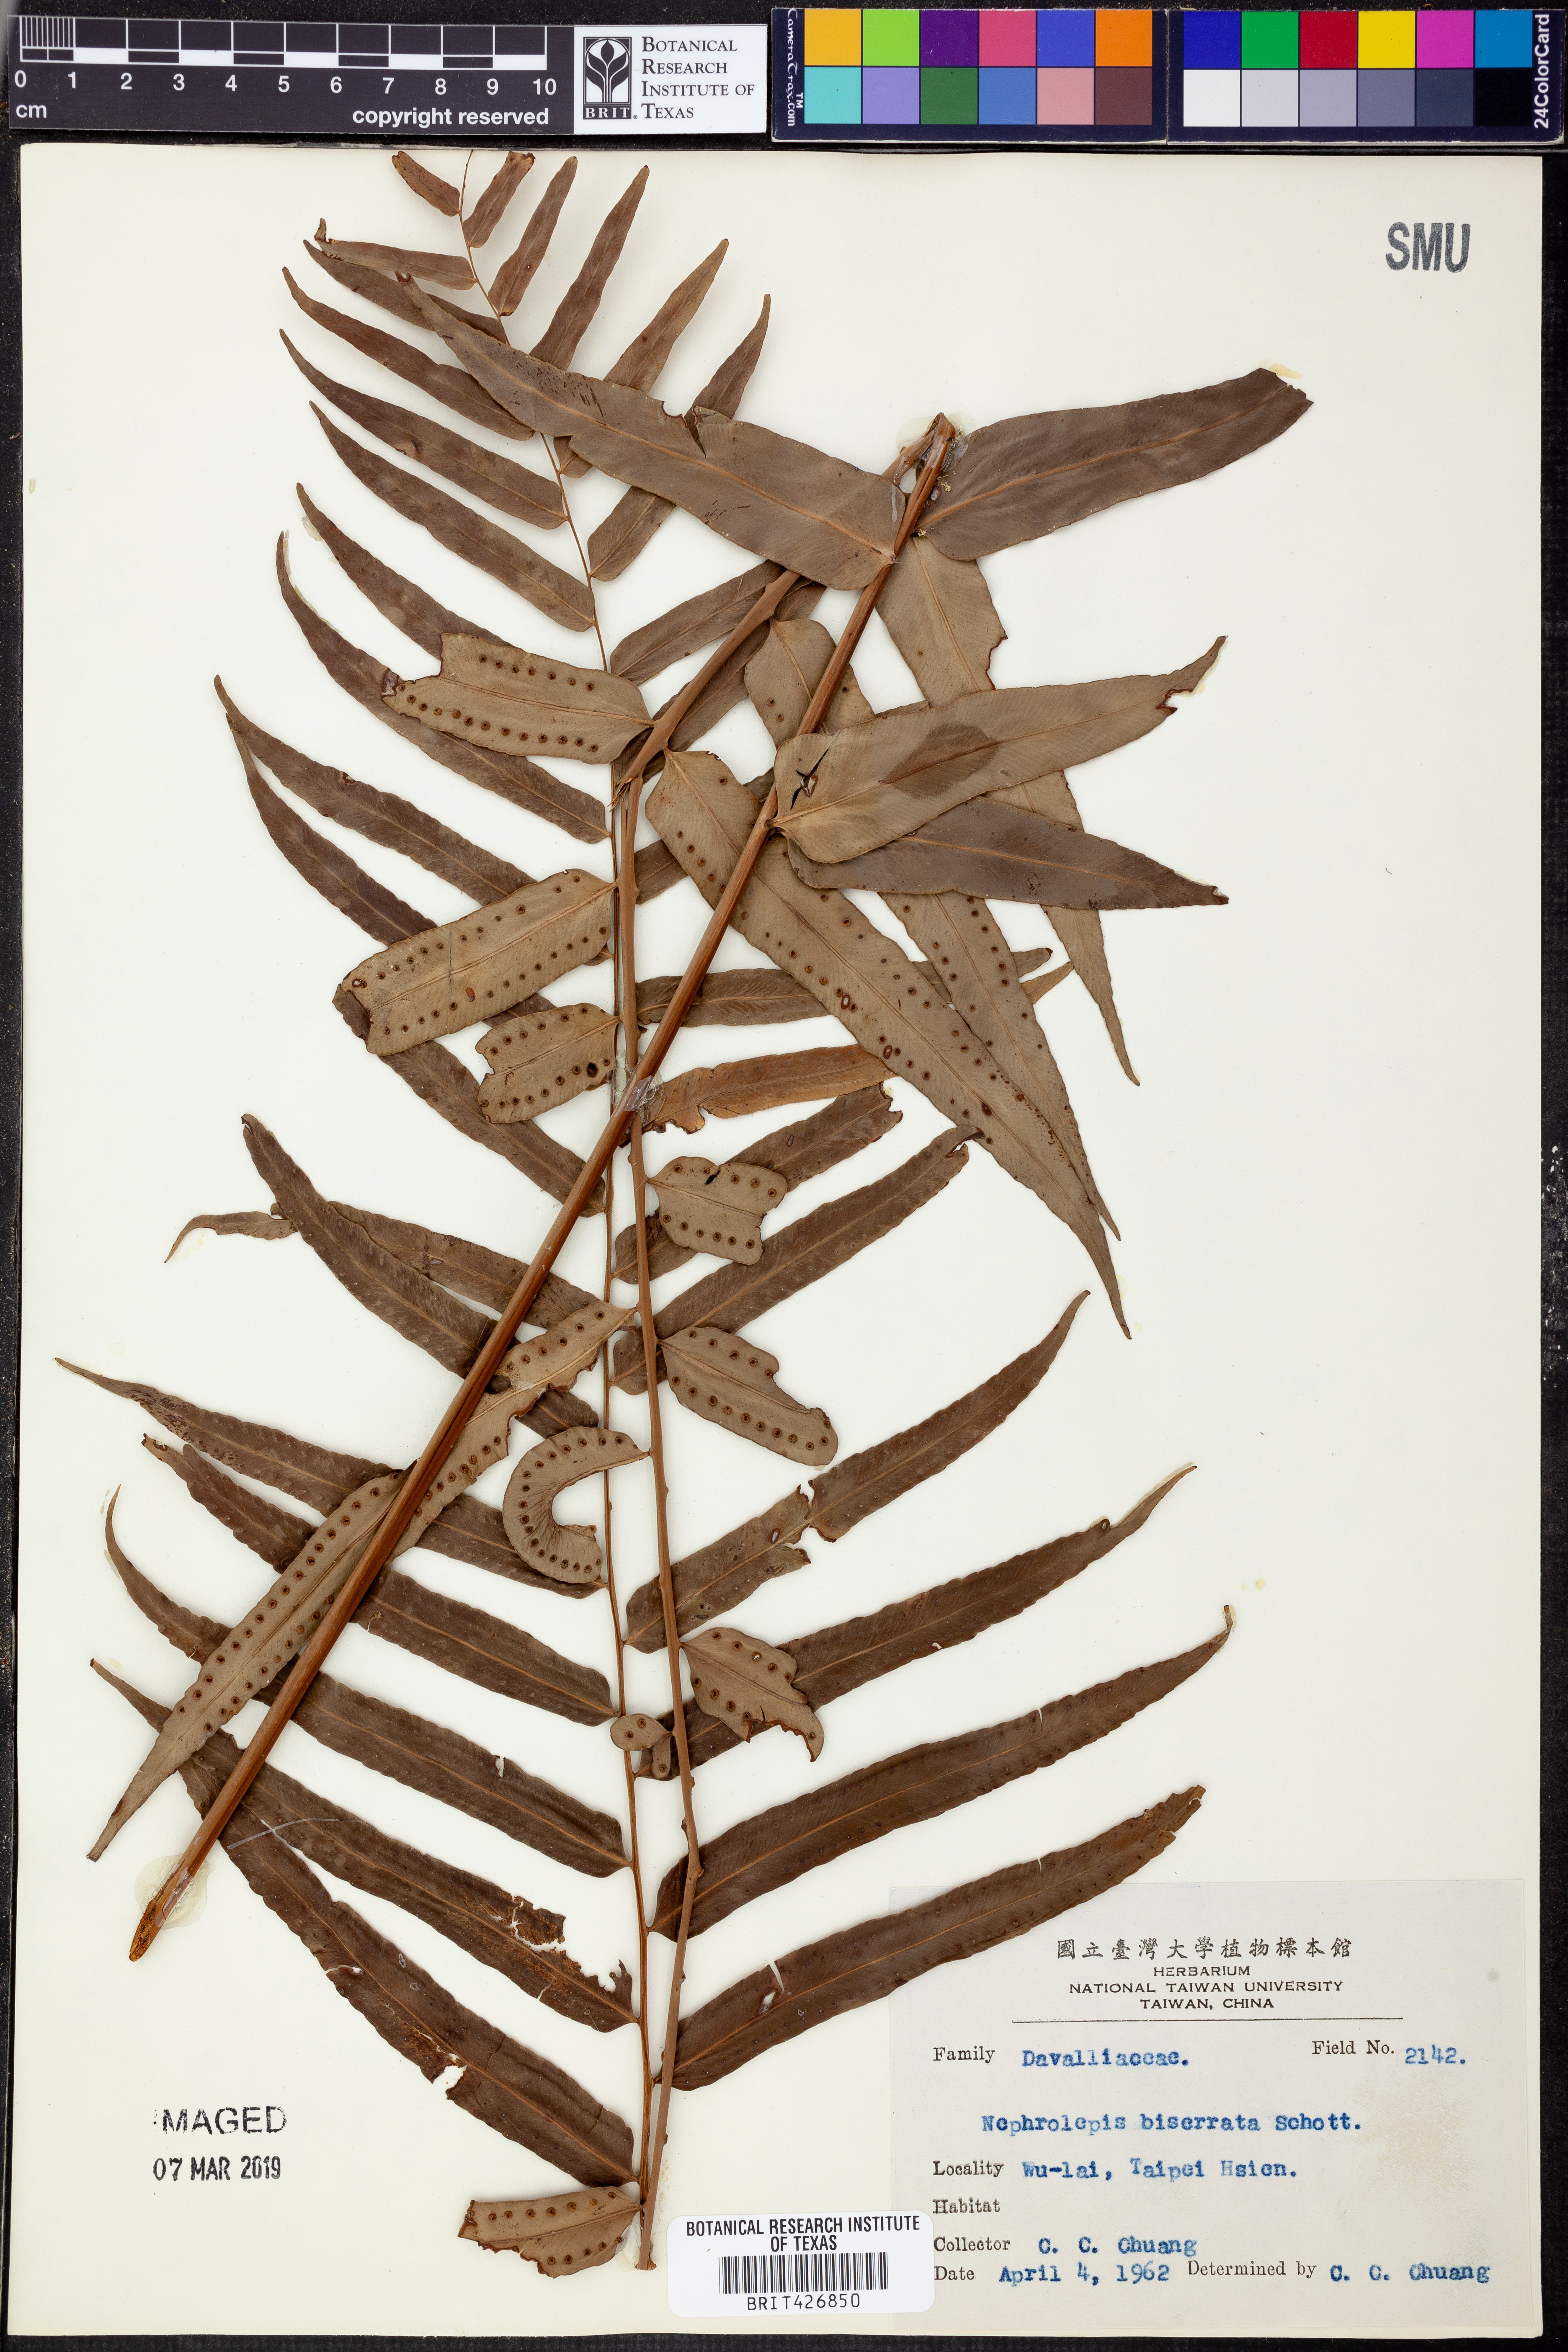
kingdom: Plantae
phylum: Tracheophyta
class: Polypodiopsida
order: Polypodiales
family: Nephrolepidaceae
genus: Nephrolepis
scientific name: Nephrolepis biserrata
